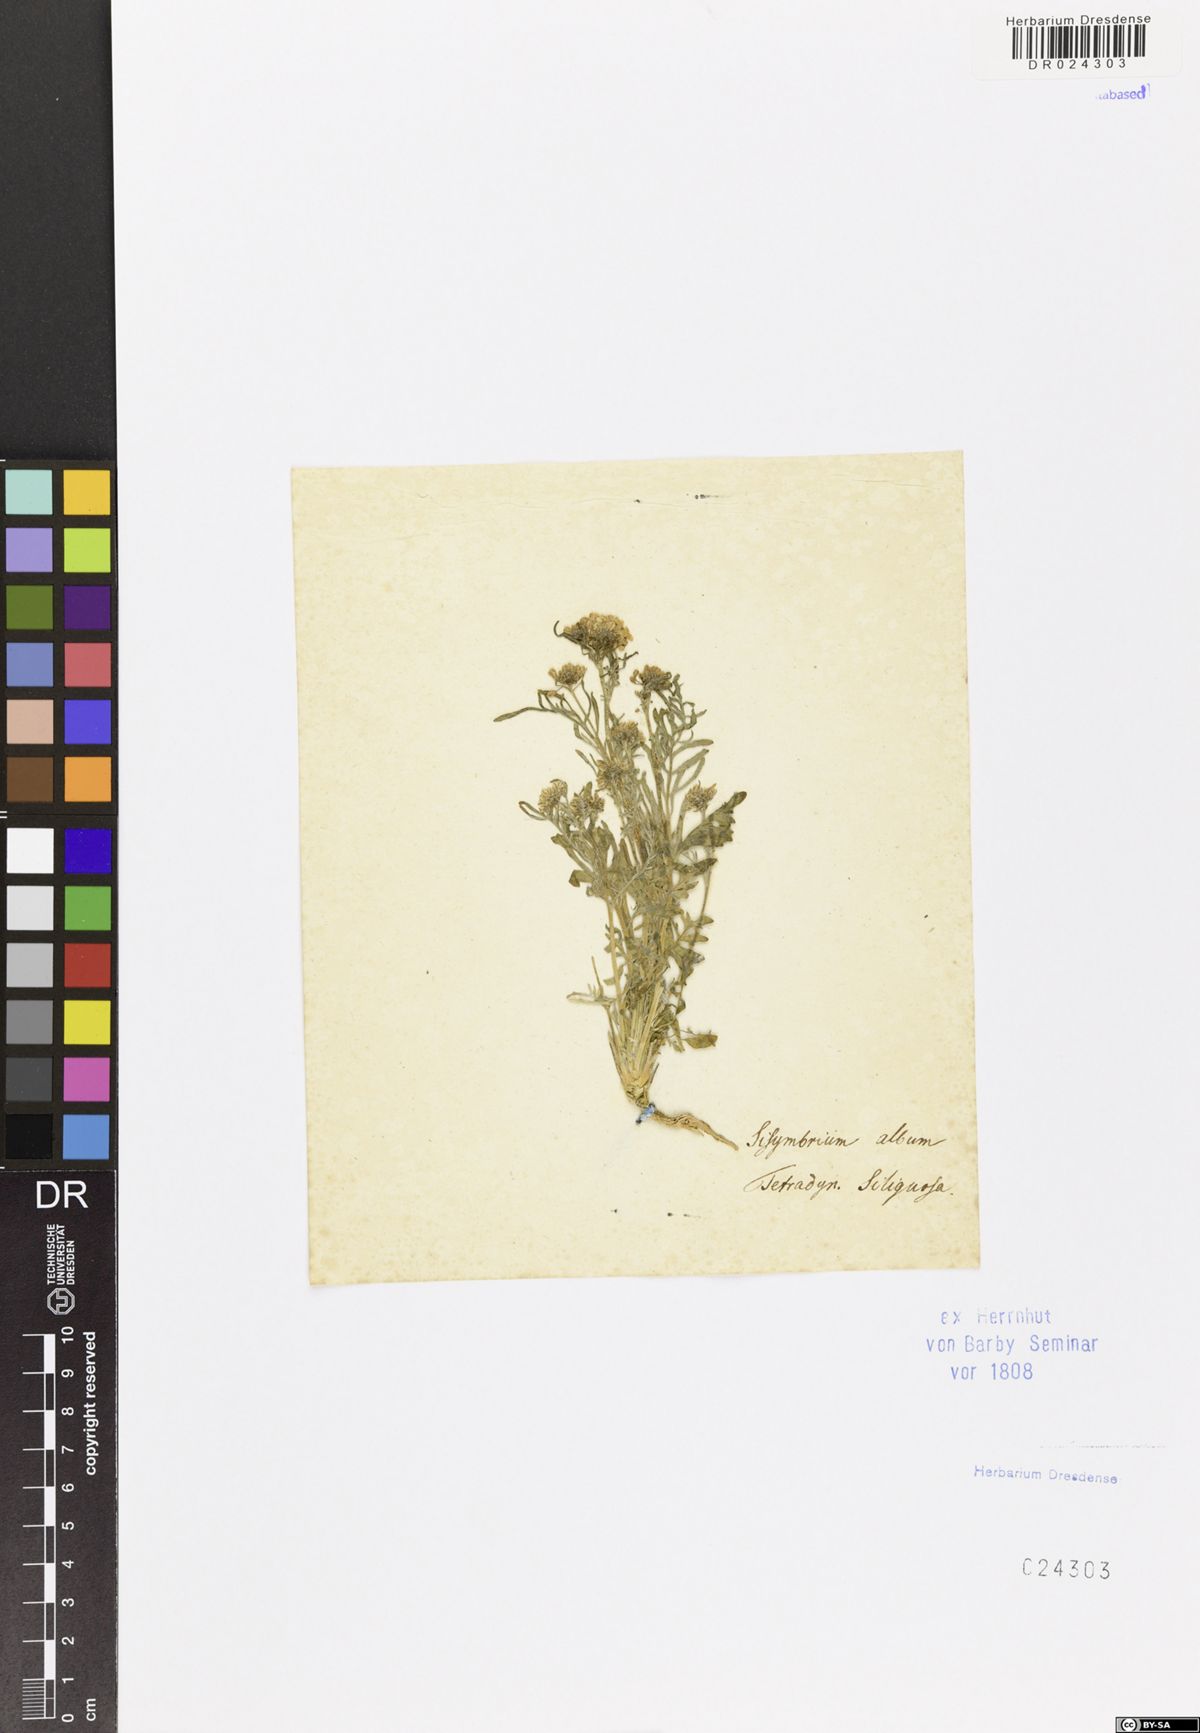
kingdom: Plantae
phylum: Tracheophyta
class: Magnoliopsida
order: Brassicales
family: Brassicaceae
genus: Smelowskia
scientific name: Smelowskia alba
